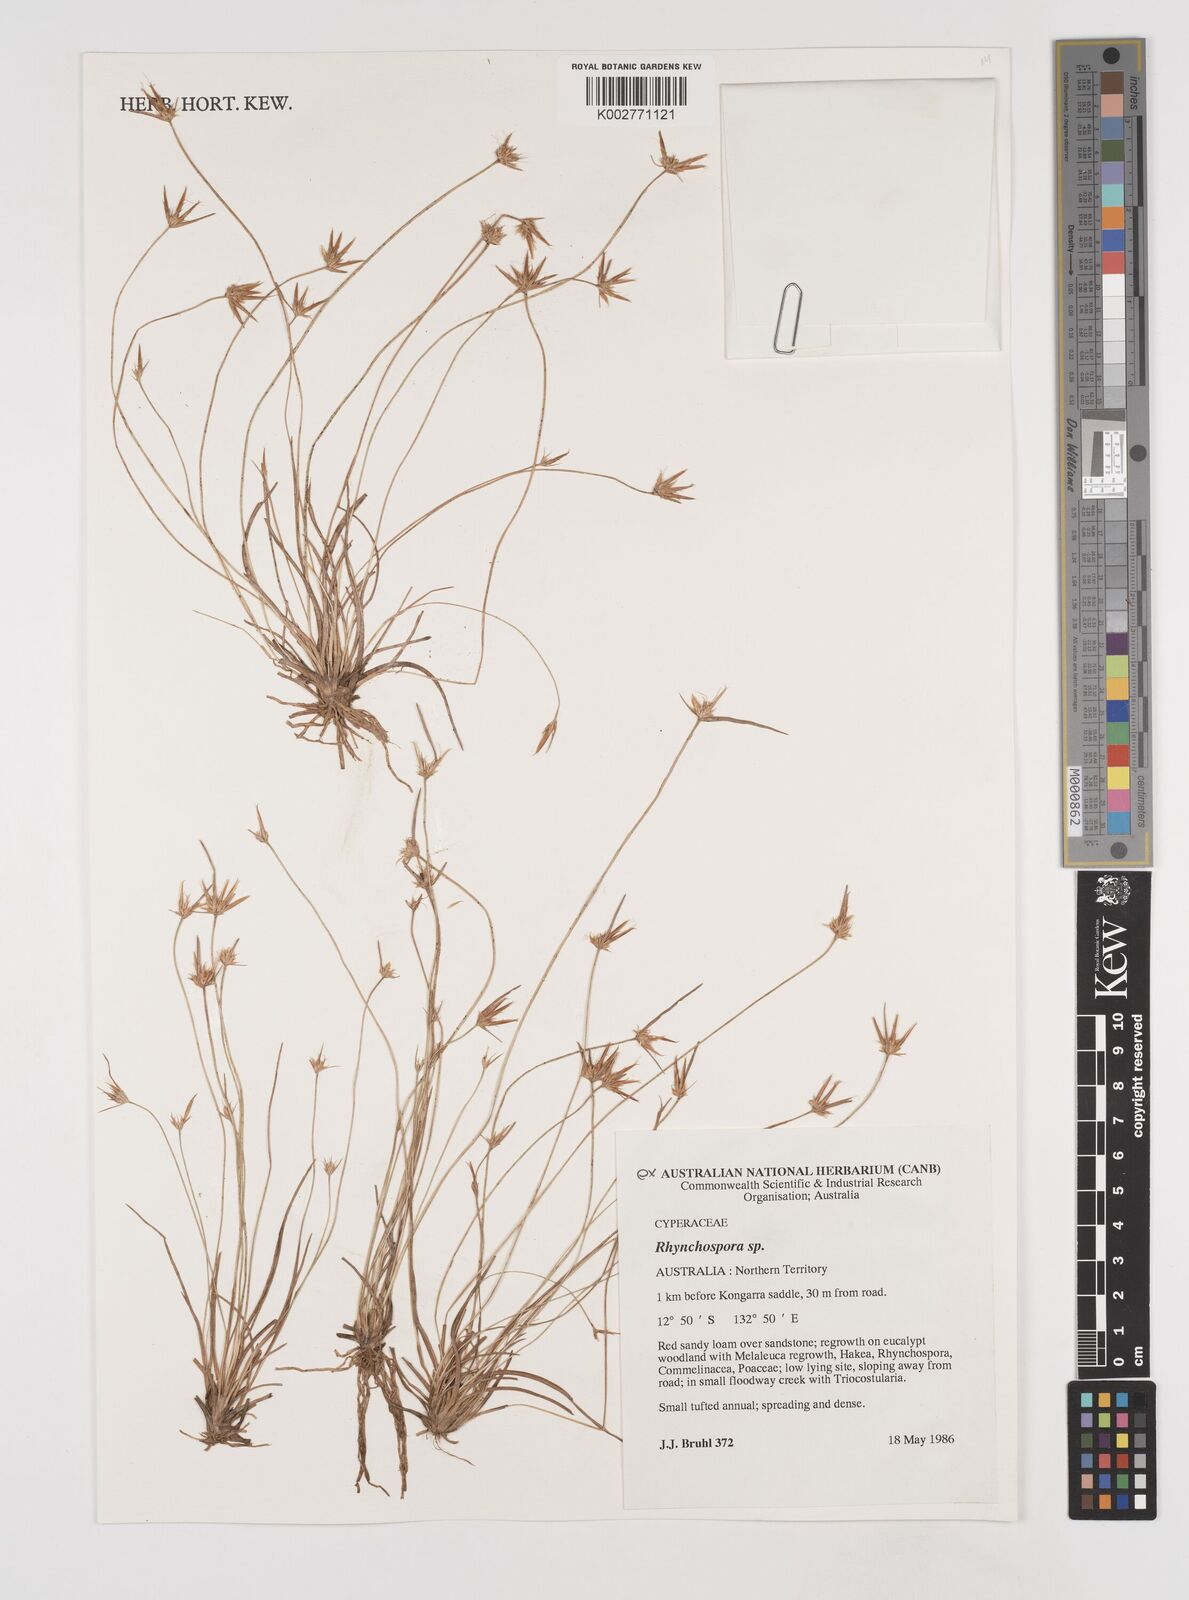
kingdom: Plantae
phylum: Tracheophyta
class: Liliopsida
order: Poales
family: Cyperaceae
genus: Rhynchospora
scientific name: Rhynchospora
